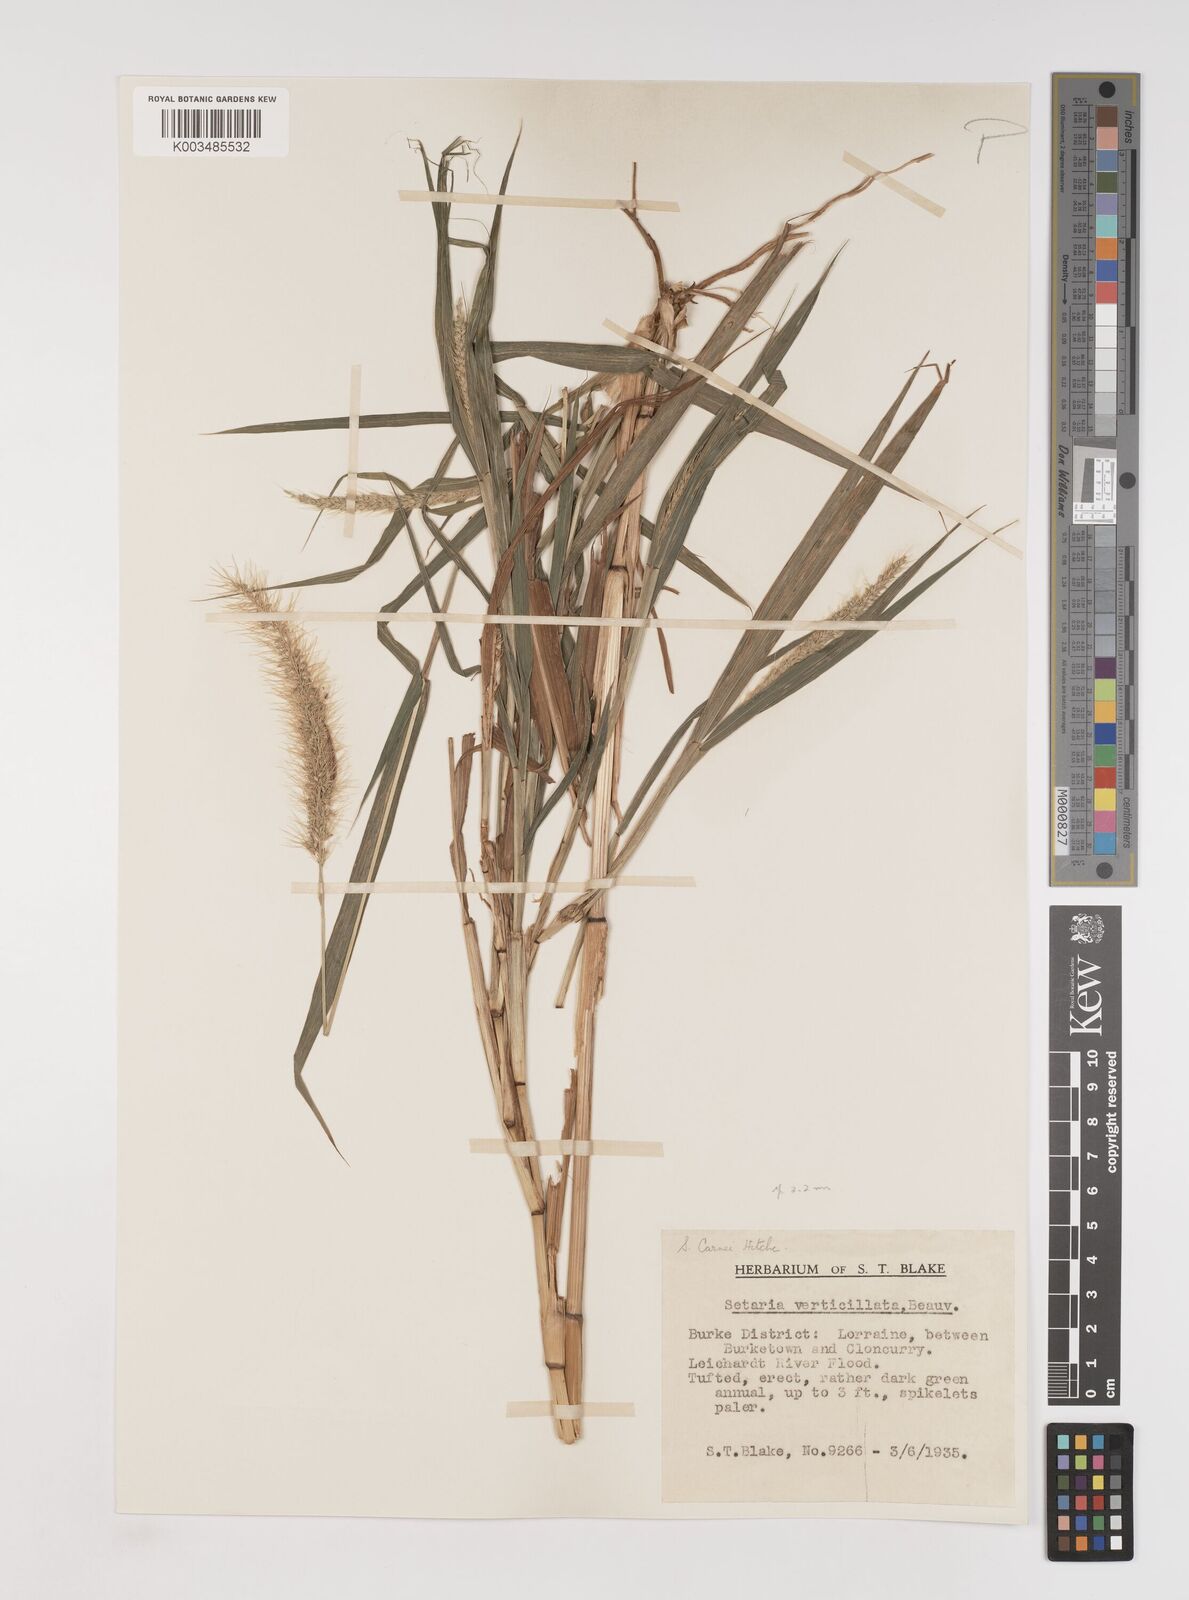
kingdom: Plantae
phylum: Tracheophyta
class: Liliopsida
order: Poales
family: Poaceae
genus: Setaria
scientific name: Setaria verticillata
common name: Hooked bristlegrass
